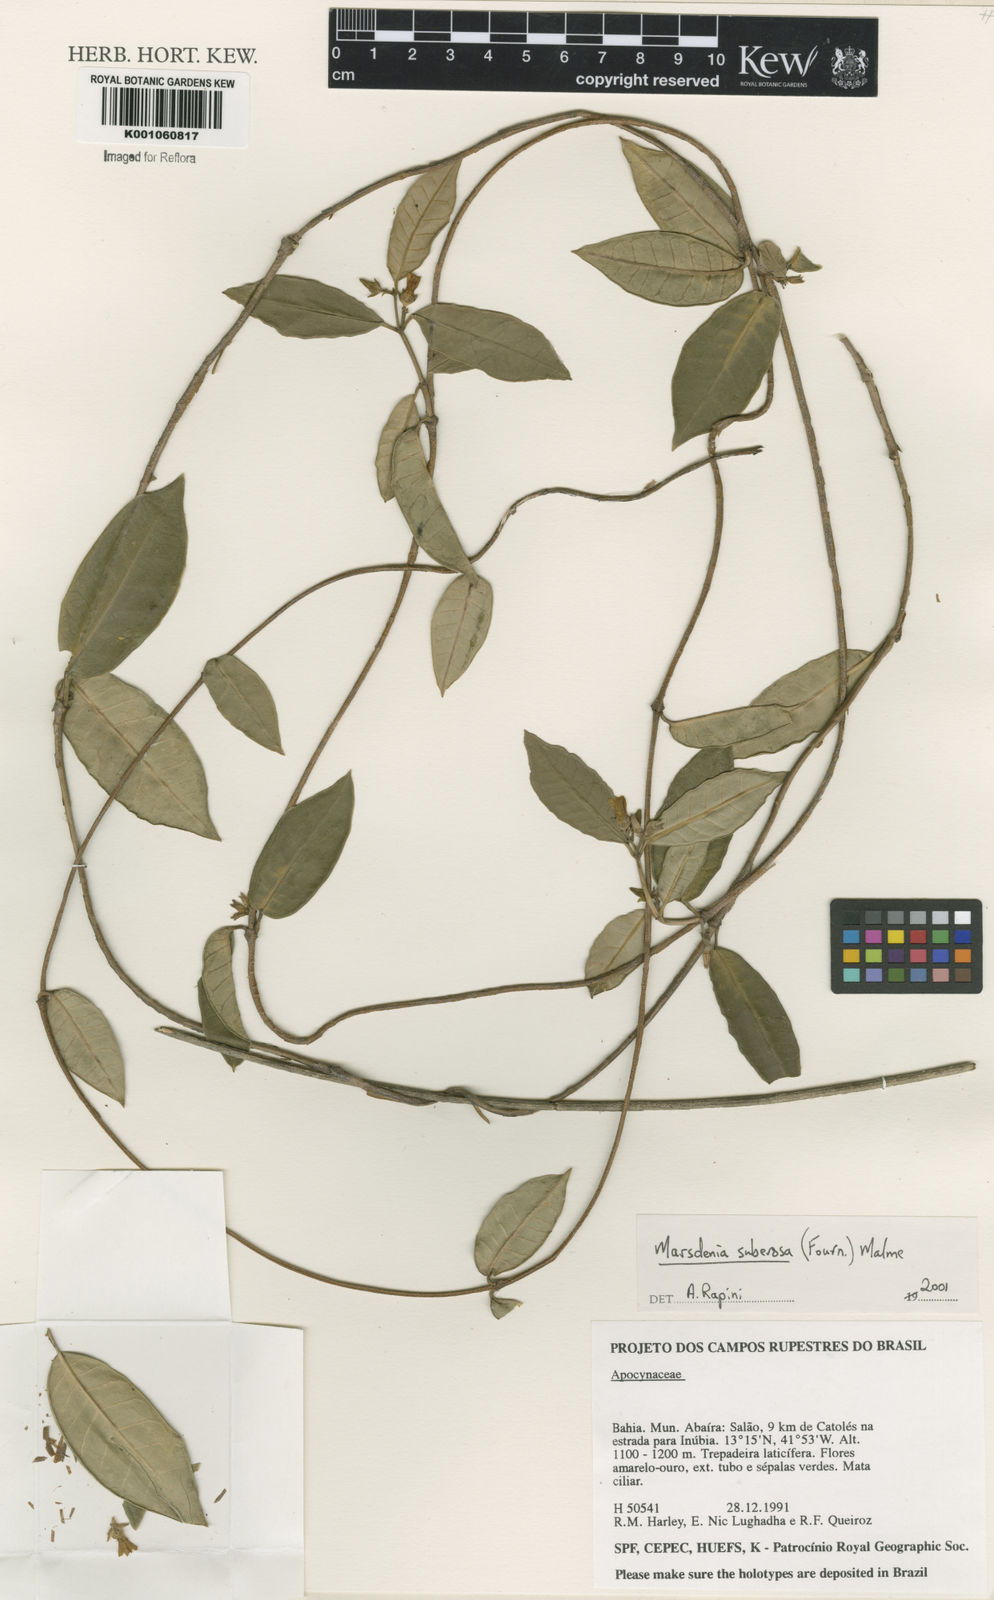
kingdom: Plantae
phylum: Tracheophyta
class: Magnoliopsida
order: Gentianales
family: Apocynaceae
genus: Ruehssia
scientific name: Ruehssia suberosa
